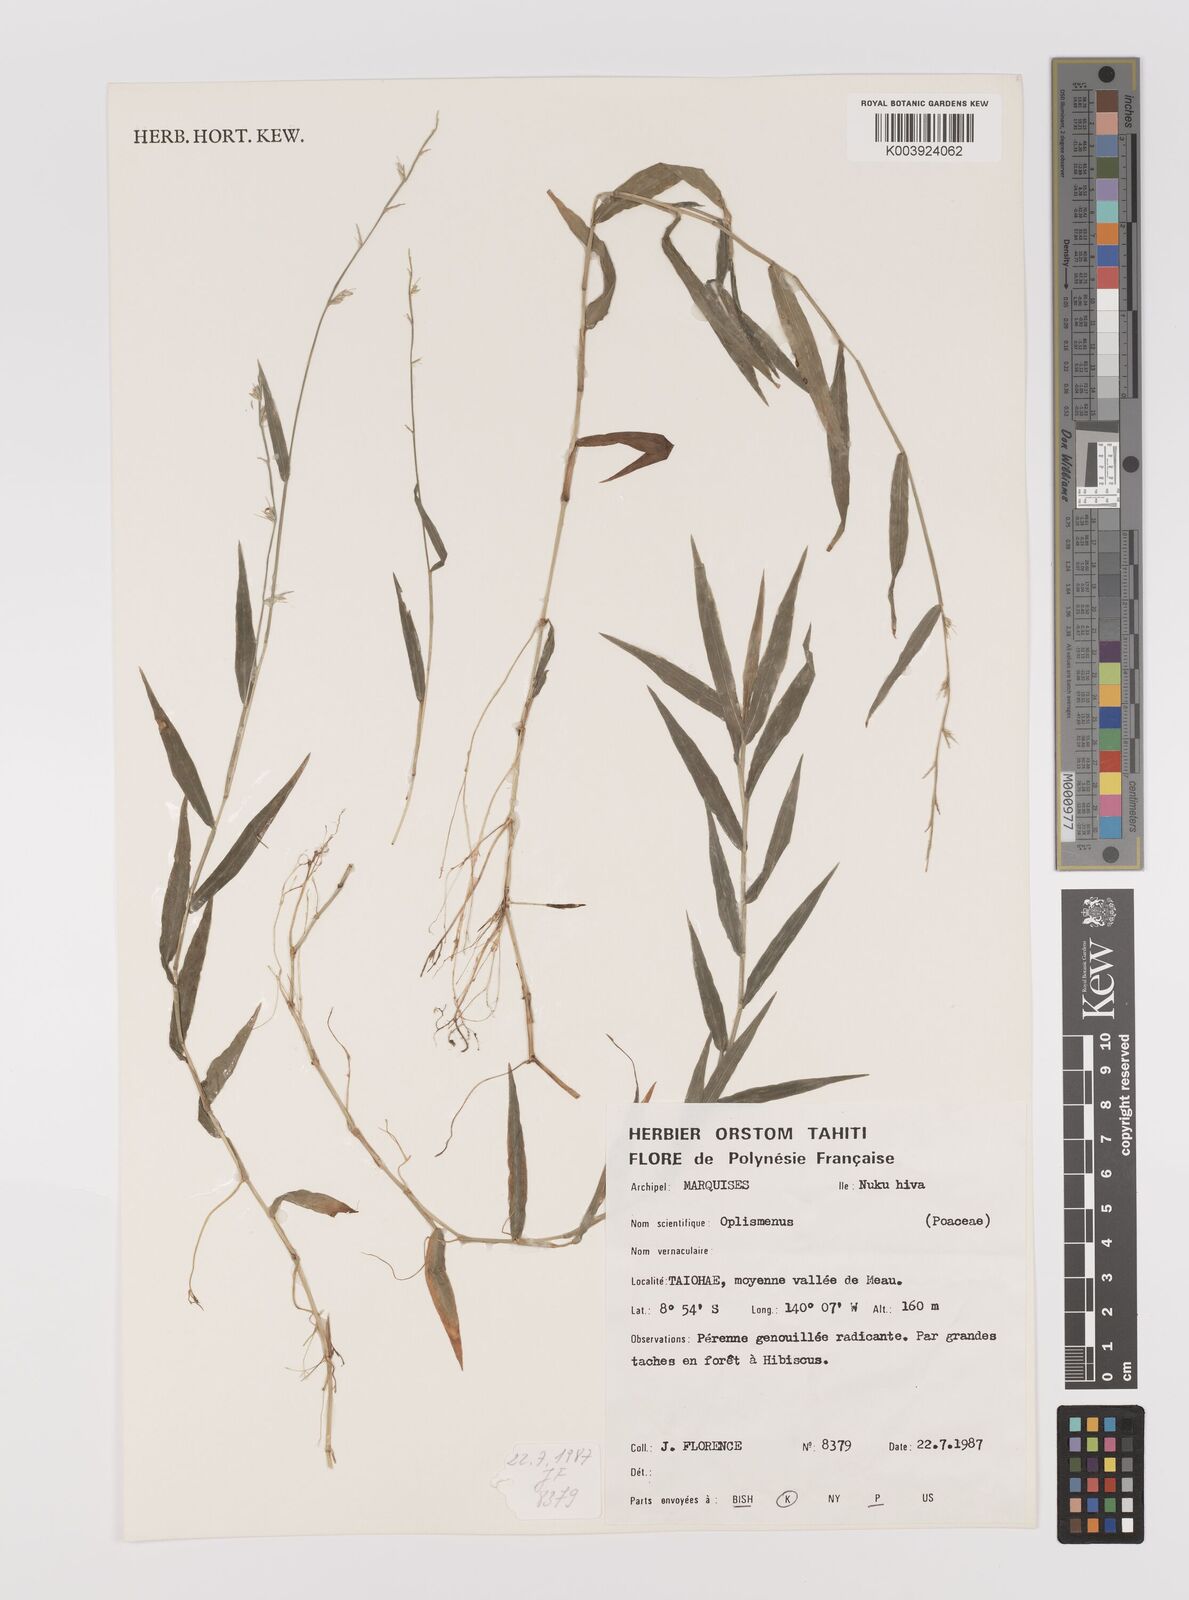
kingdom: Plantae
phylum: Tracheophyta
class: Liliopsida
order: Poales
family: Poaceae
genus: Oplismenus
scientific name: Oplismenus hirtellus
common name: Basketgrass
